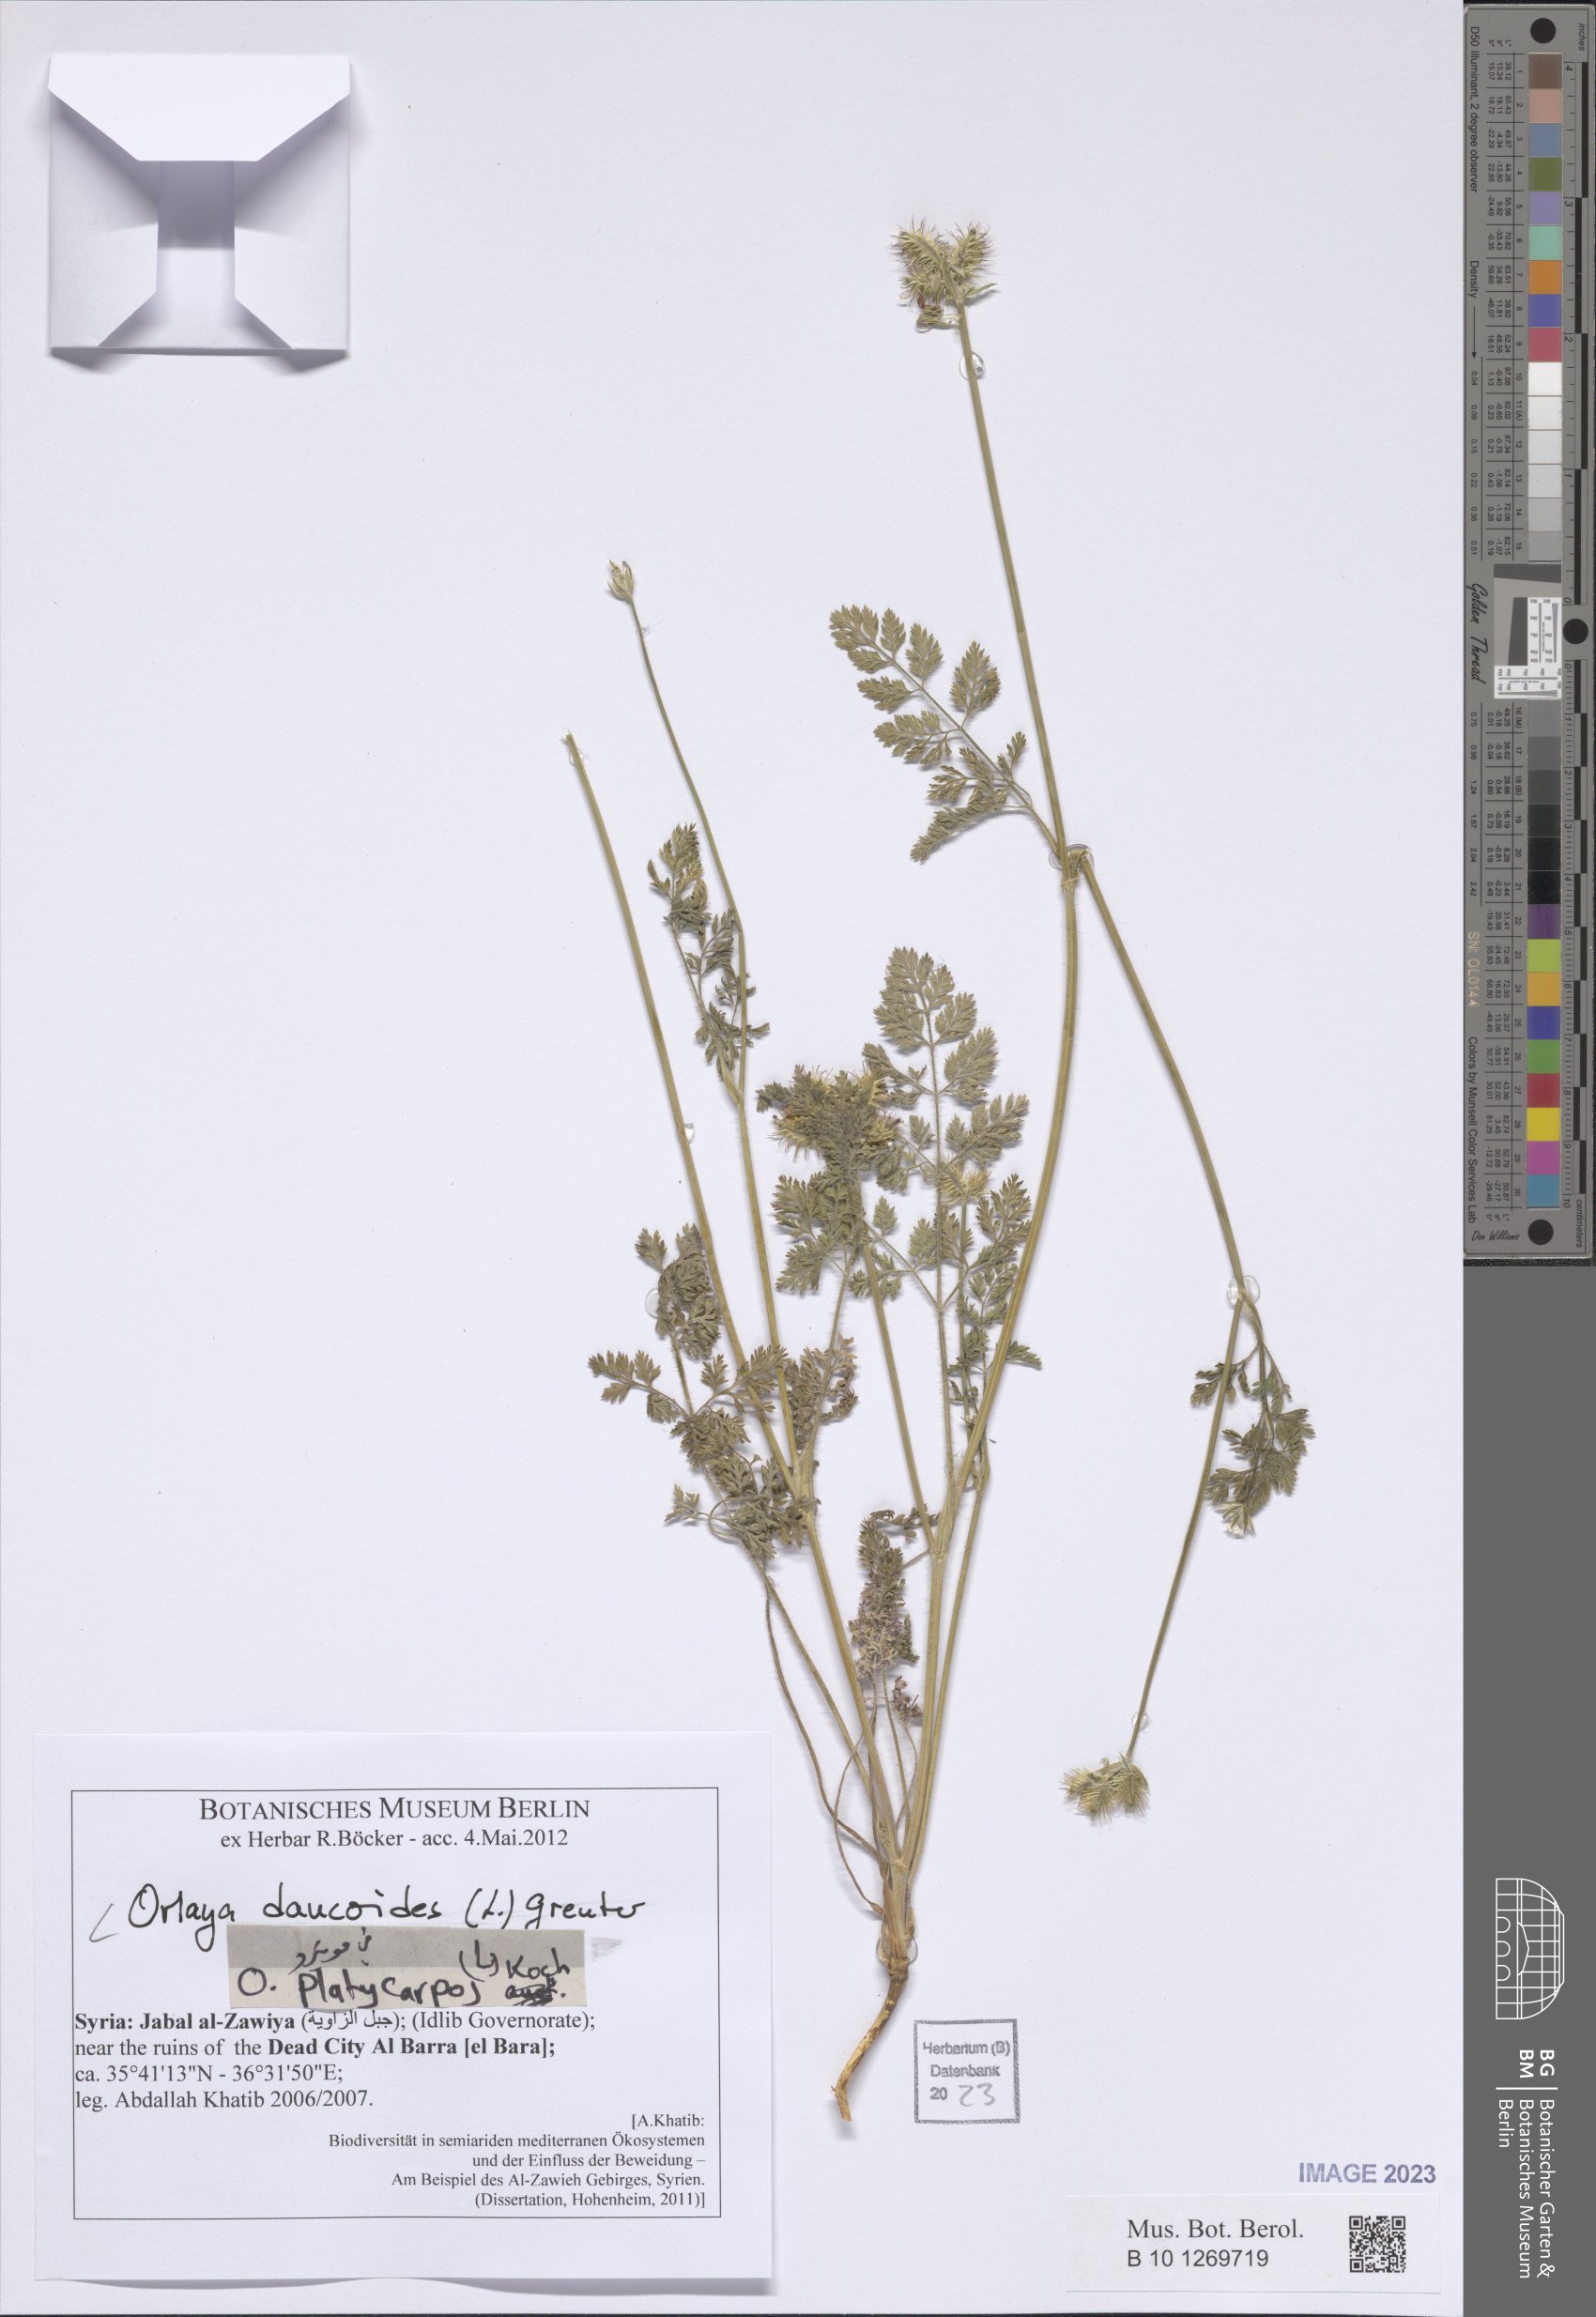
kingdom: Plantae
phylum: Tracheophyta
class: Magnoliopsida
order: Apiales
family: Apiaceae
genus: Orlaya
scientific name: Orlaya daucoides
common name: Flat-fruit orlaya
